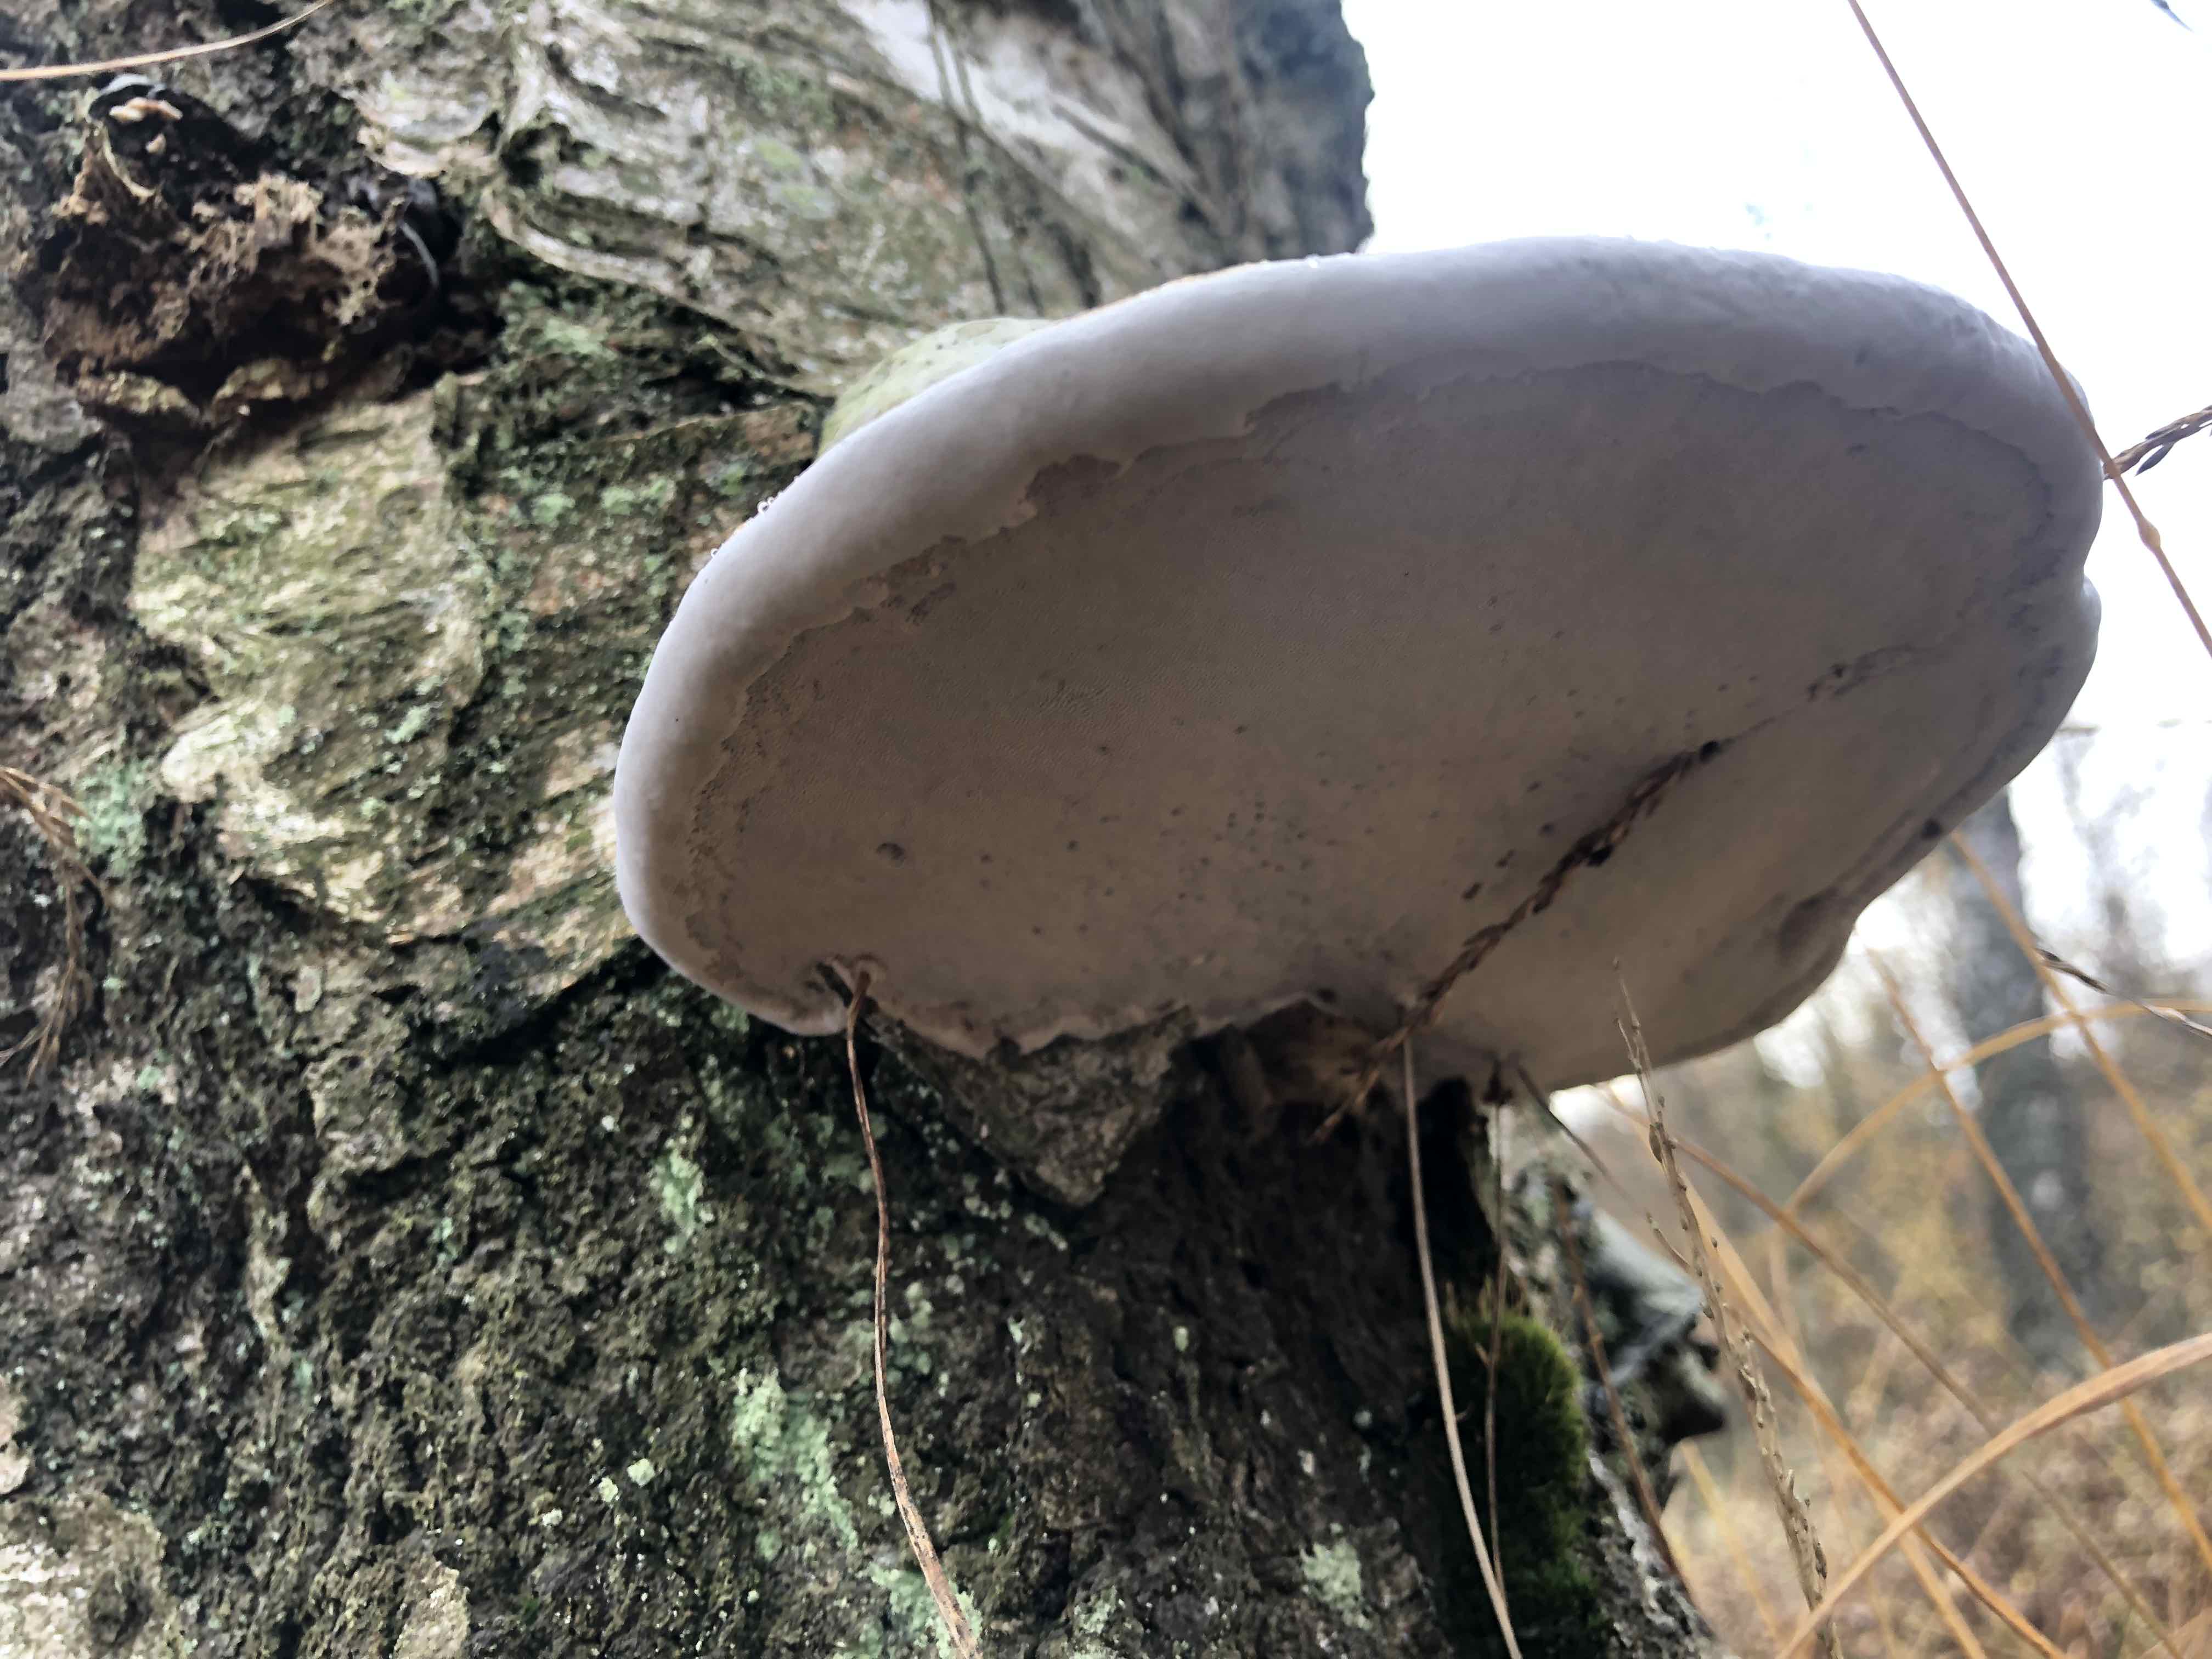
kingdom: Fungi
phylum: Basidiomycota
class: Agaricomycetes
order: Polyporales
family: Polyporaceae
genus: Fomes
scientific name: Fomes fomentarius
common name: tøndersvamp
